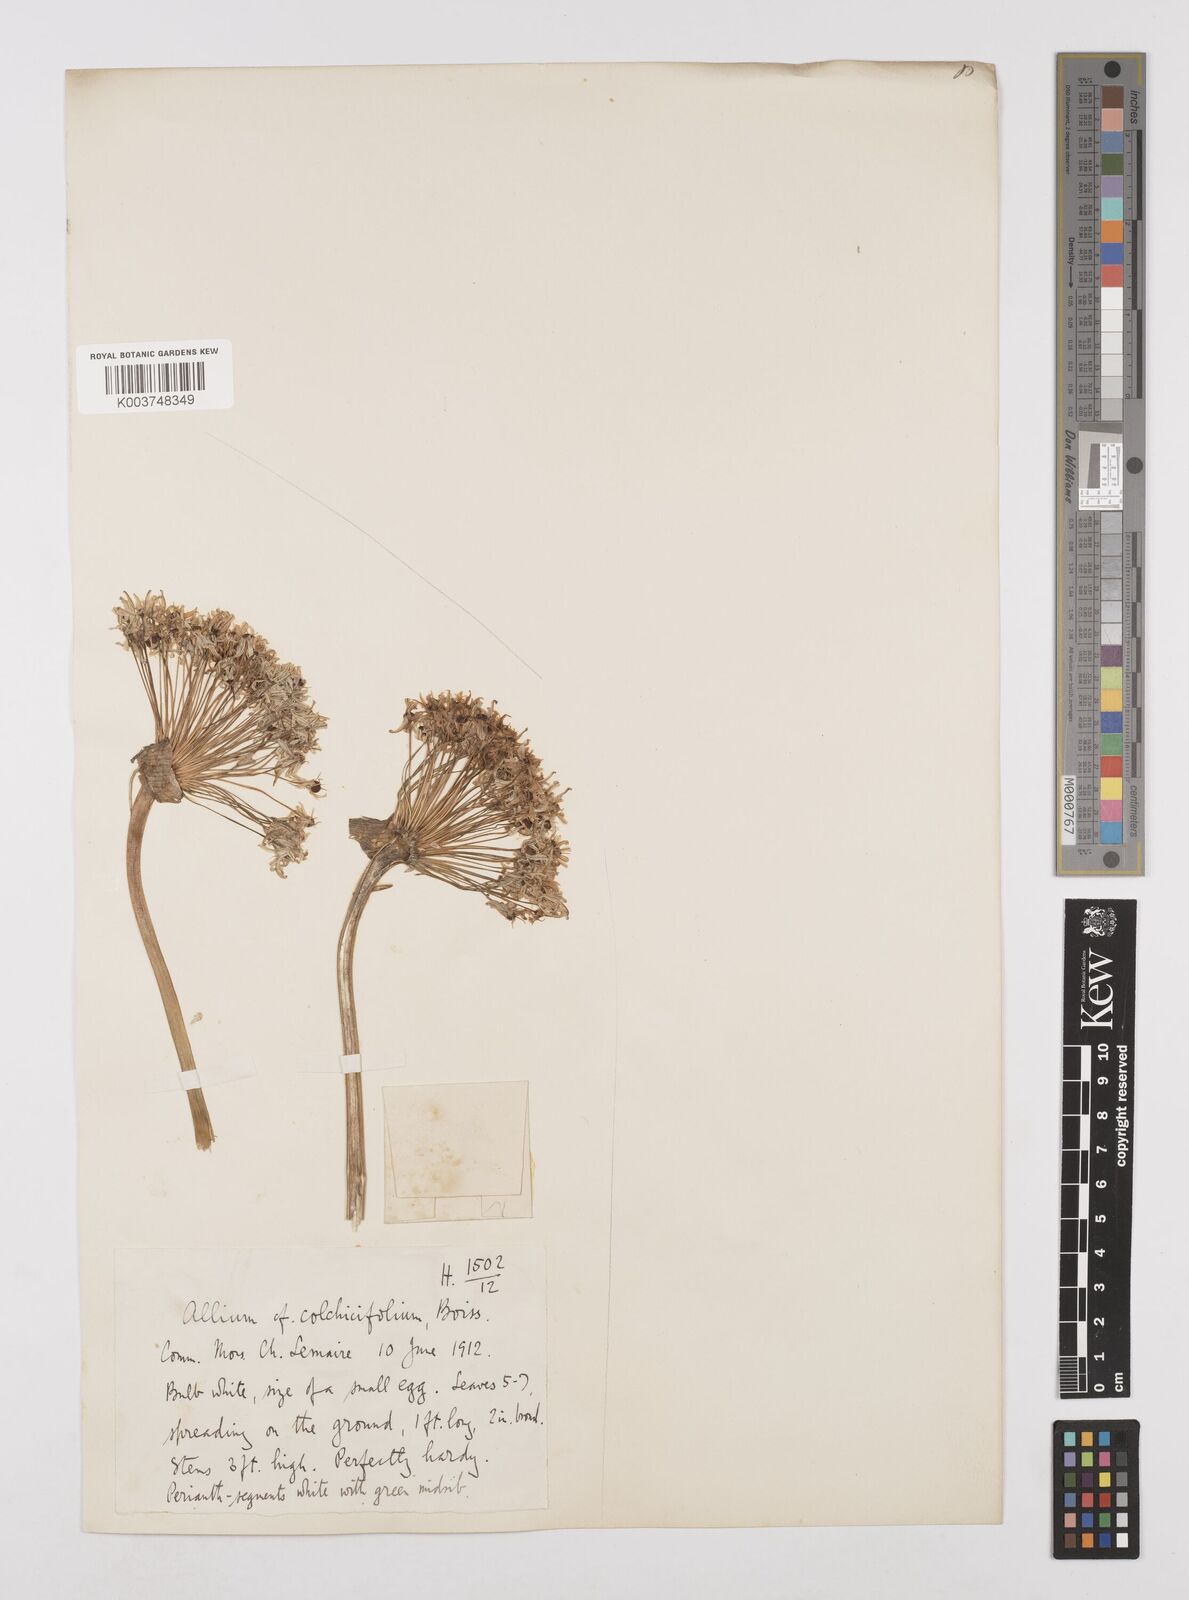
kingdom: Plantae
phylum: Tracheophyta
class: Liliopsida
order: Asparagales
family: Amaryllidaceae
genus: Allium
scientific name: Allium colchicifolium
